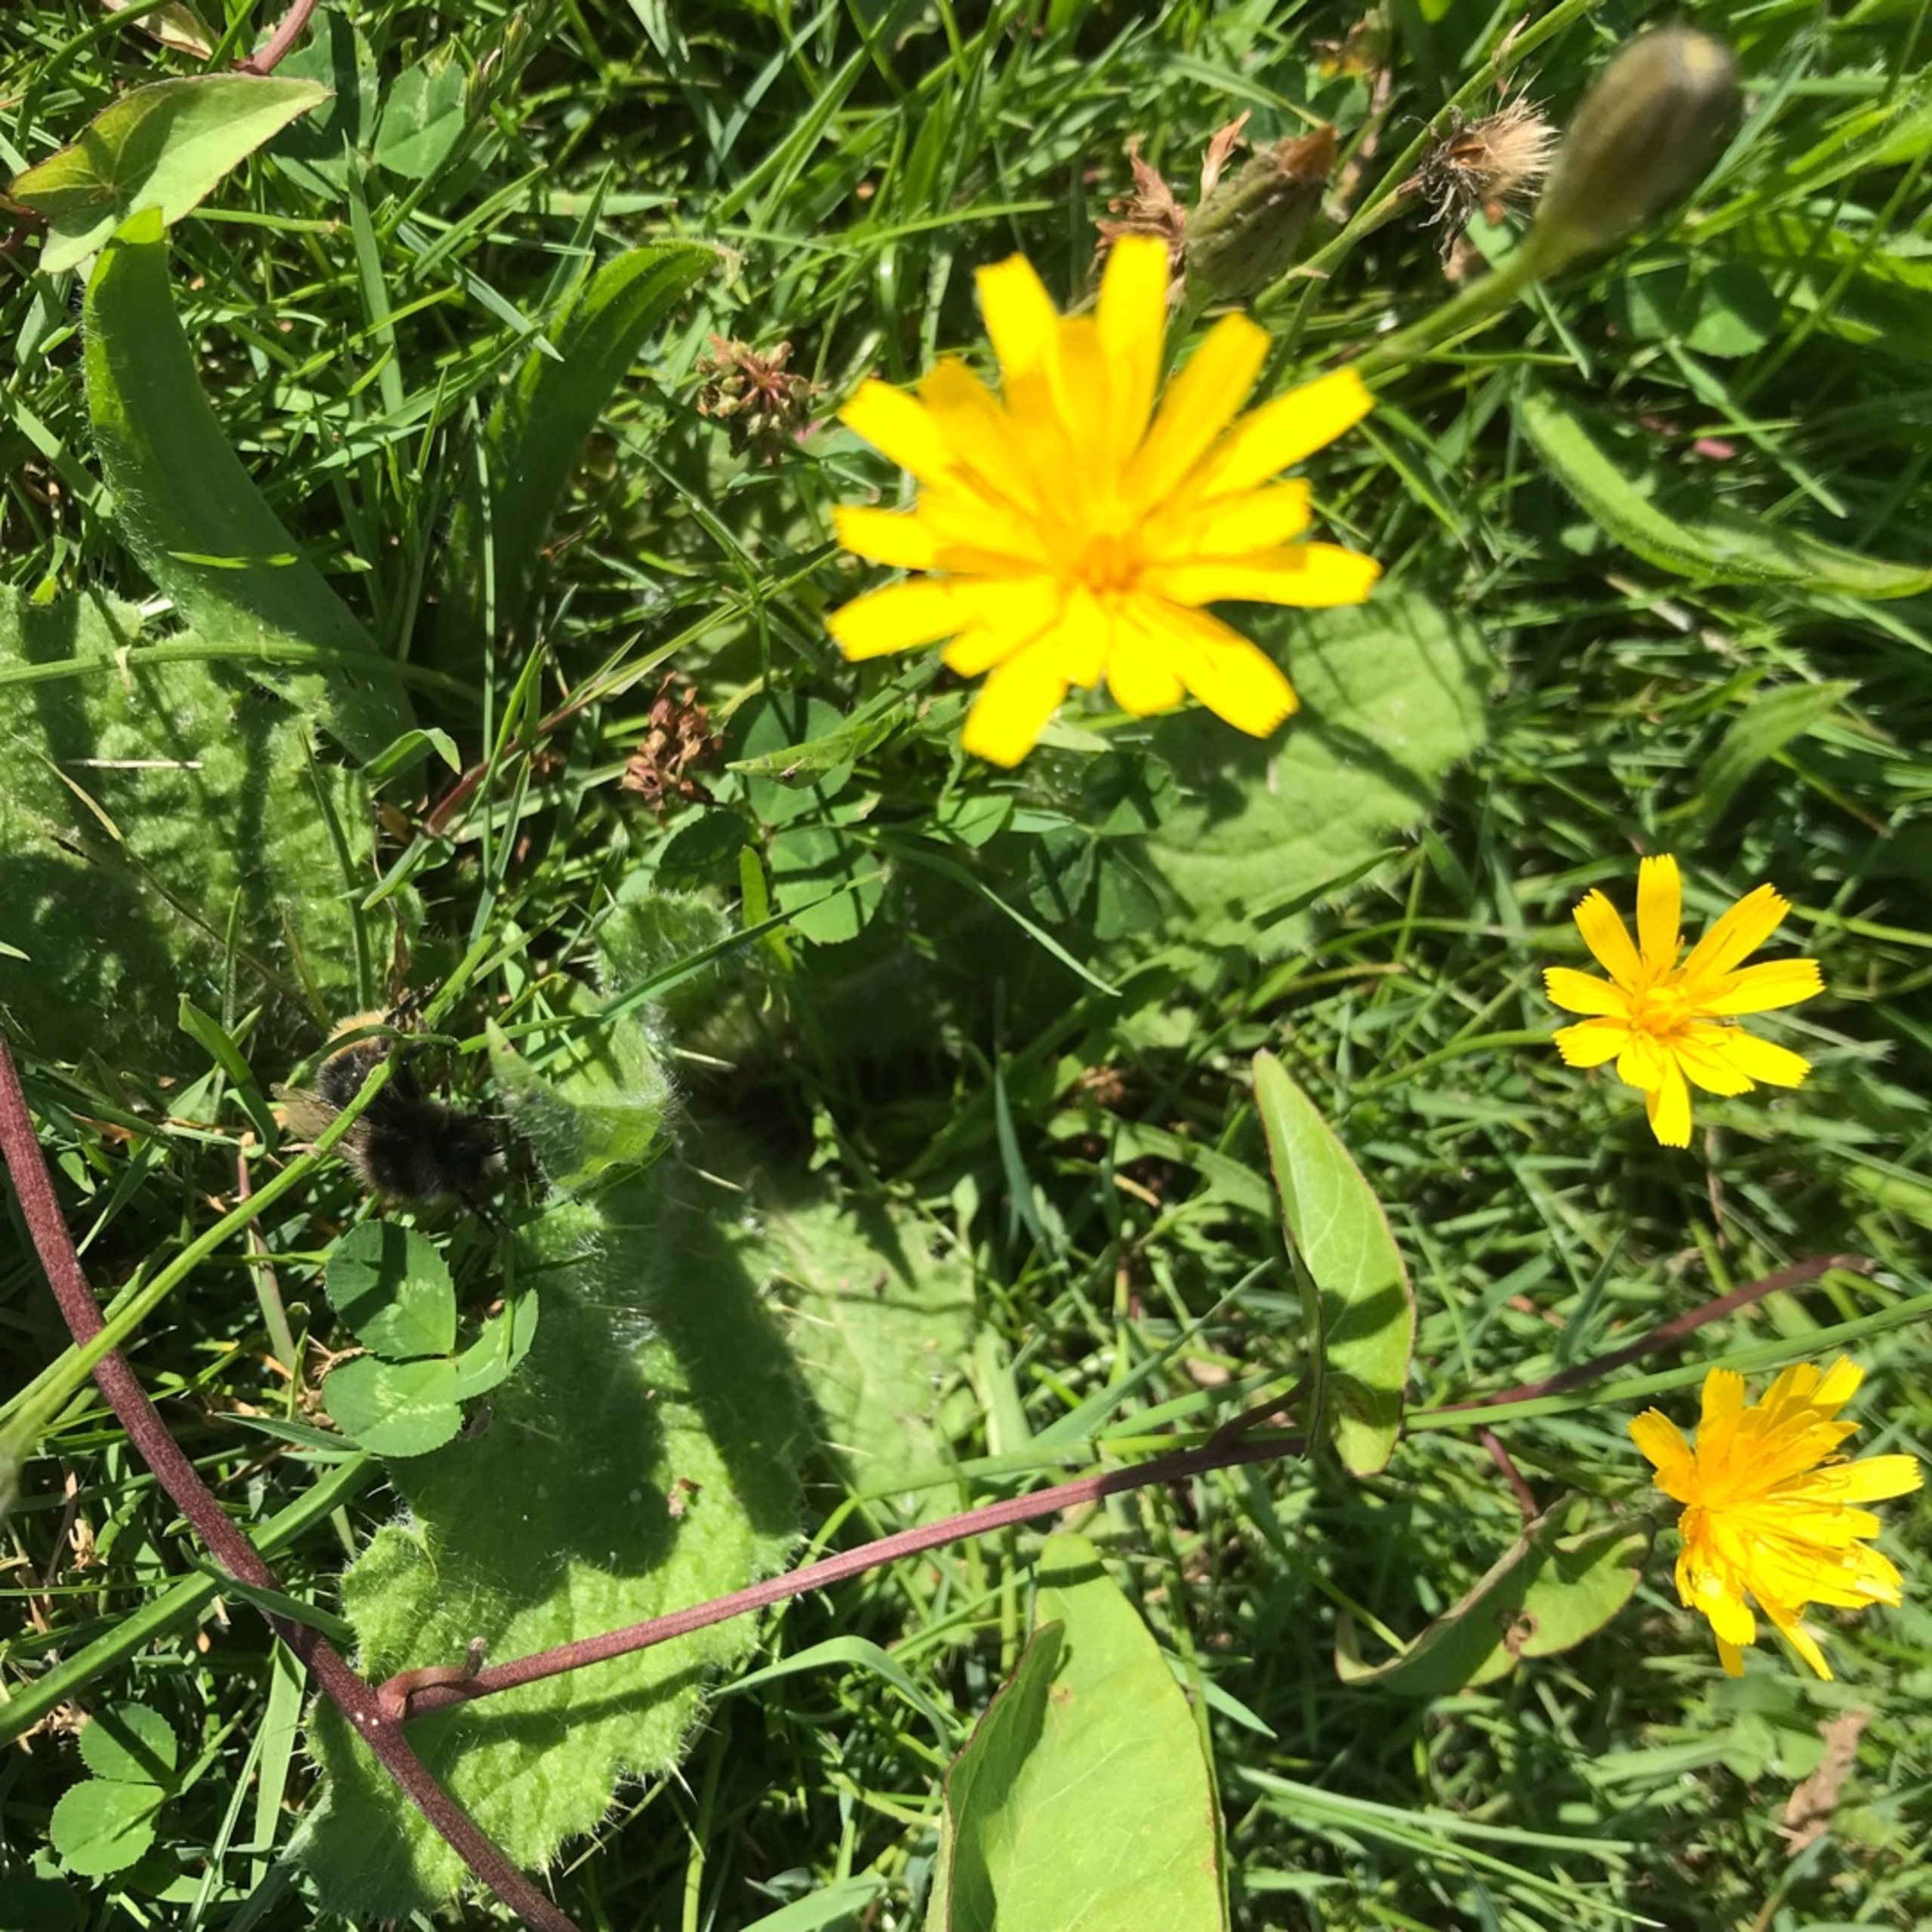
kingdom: Plantae
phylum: Tracheophyta
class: Magnoliopsida
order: Asterales
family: Asteraceae
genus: Scorzoneroides
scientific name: Scorzoneroides autumnalis
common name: Høst-borst
